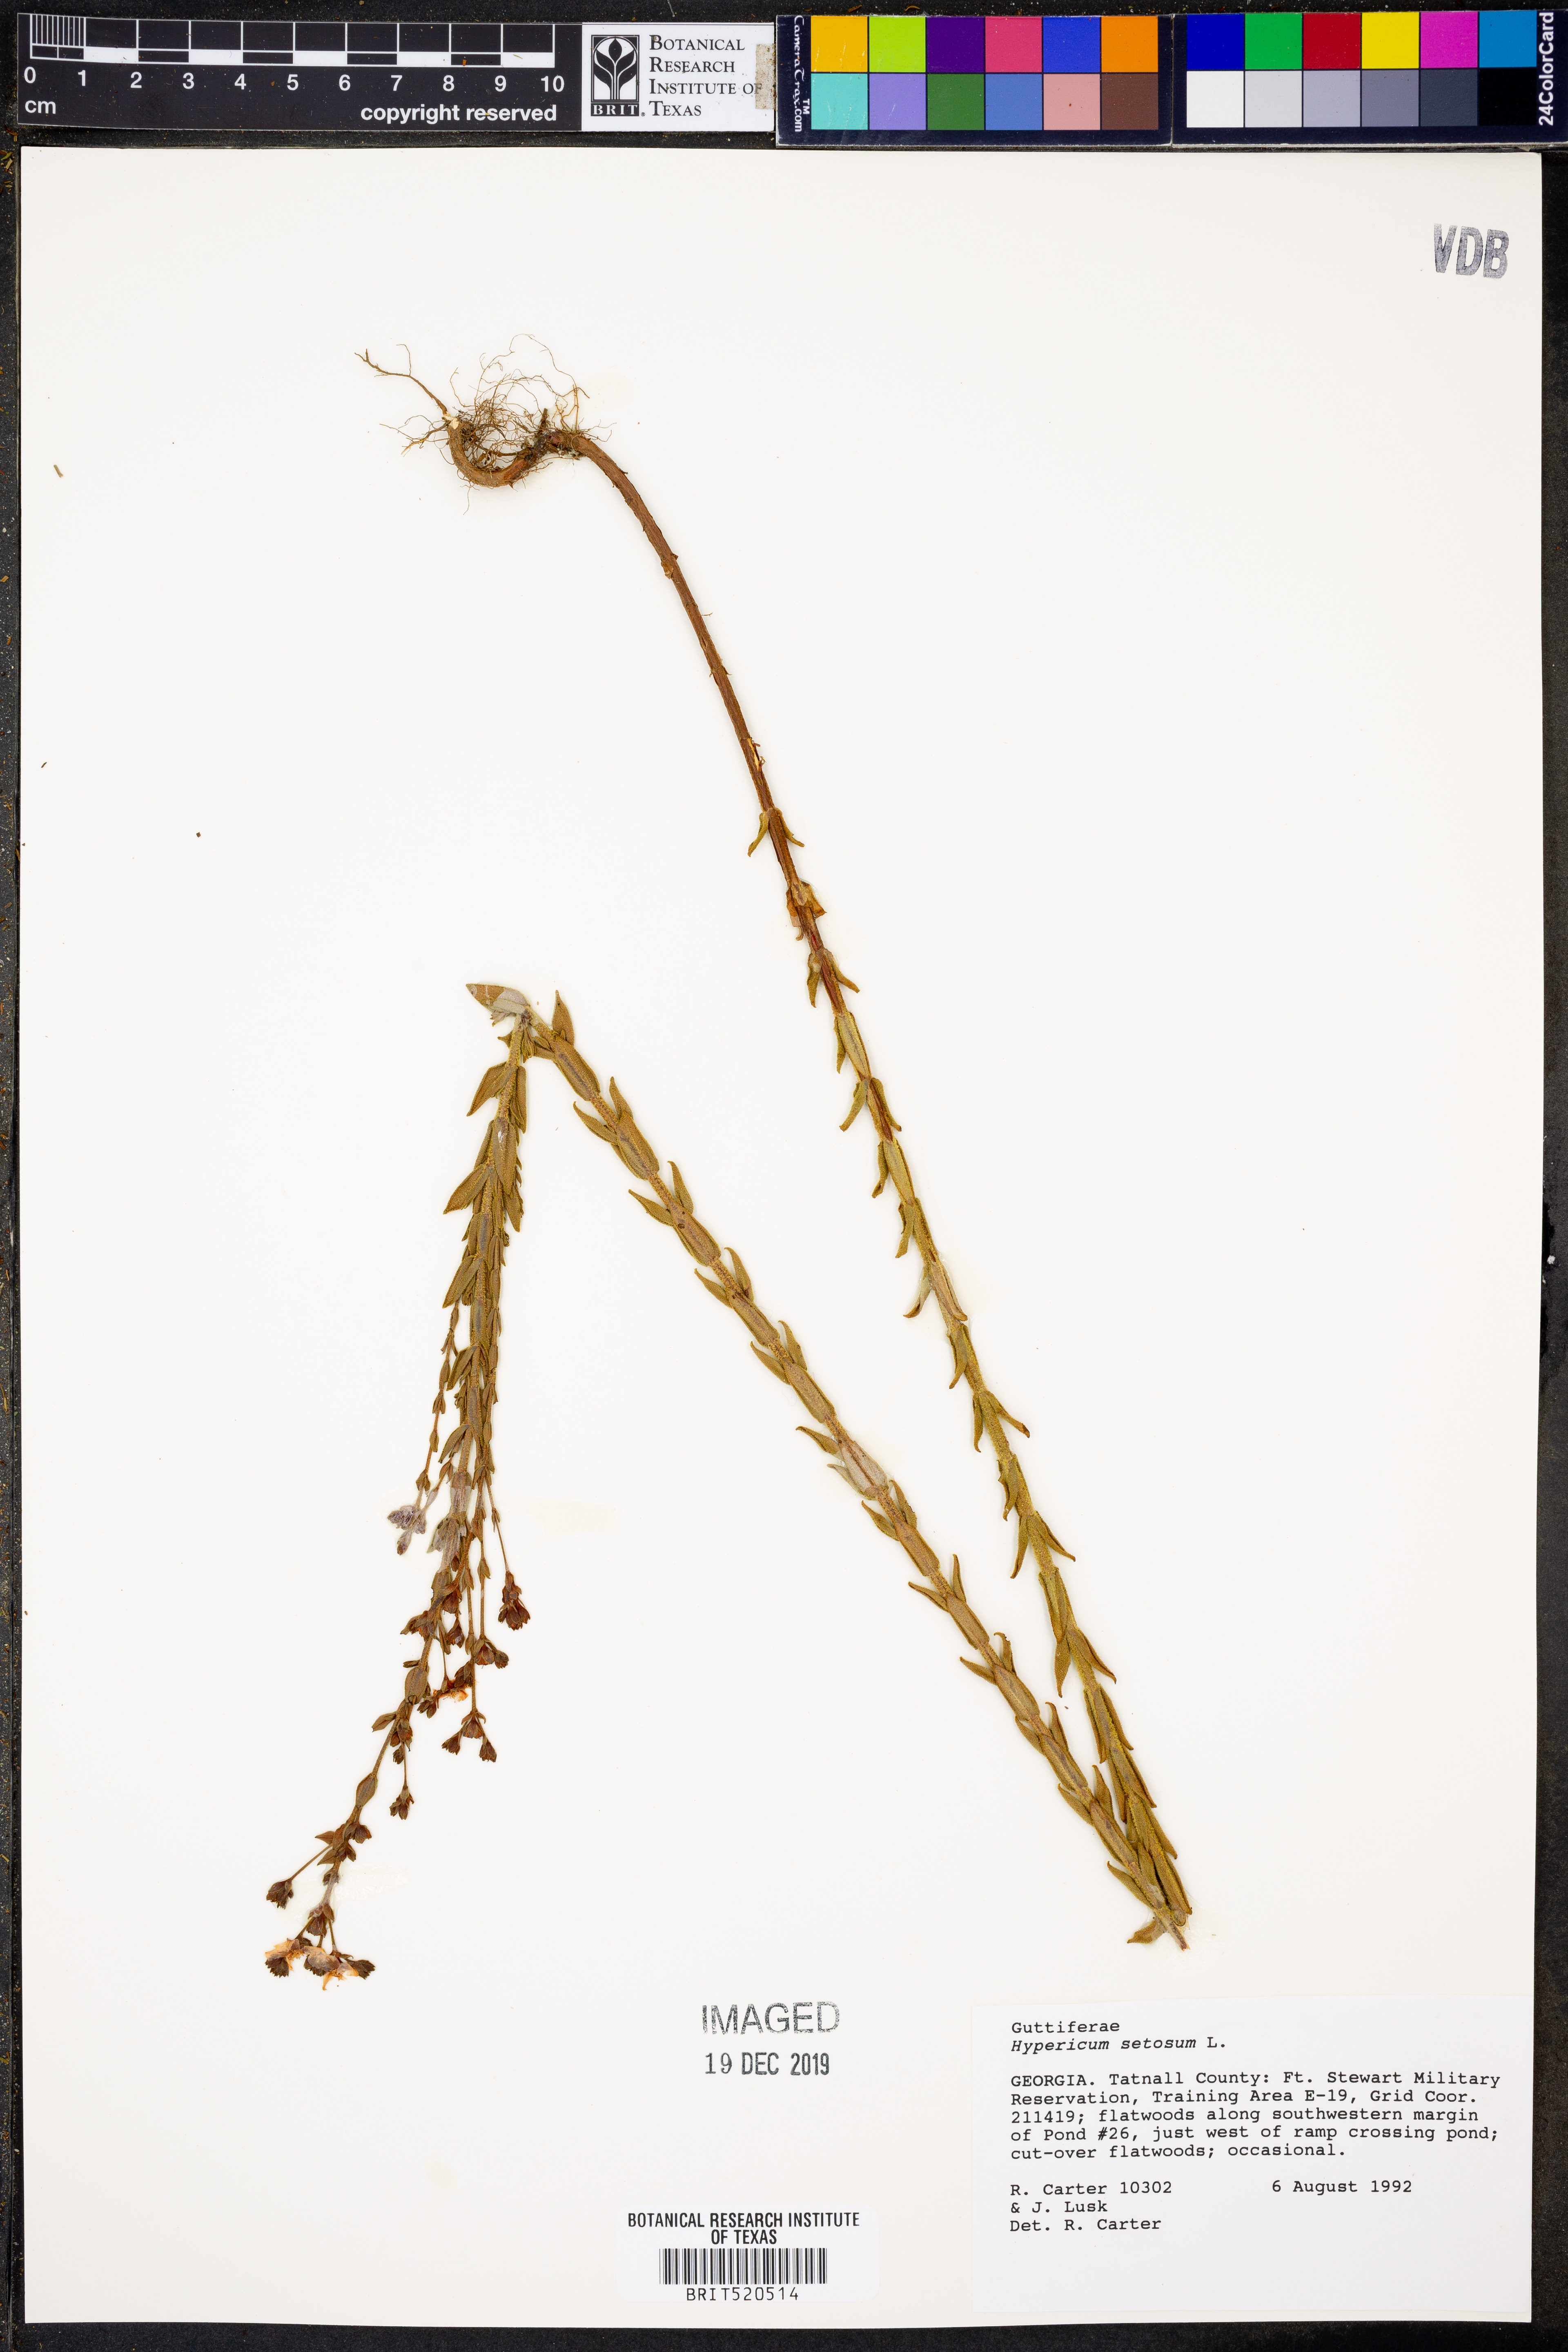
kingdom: Plantae
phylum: Tracheophyta
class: Magnoliopsida
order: Malpighiales
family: Hypericaceae
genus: Hypericum
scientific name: Hypericum setosum
